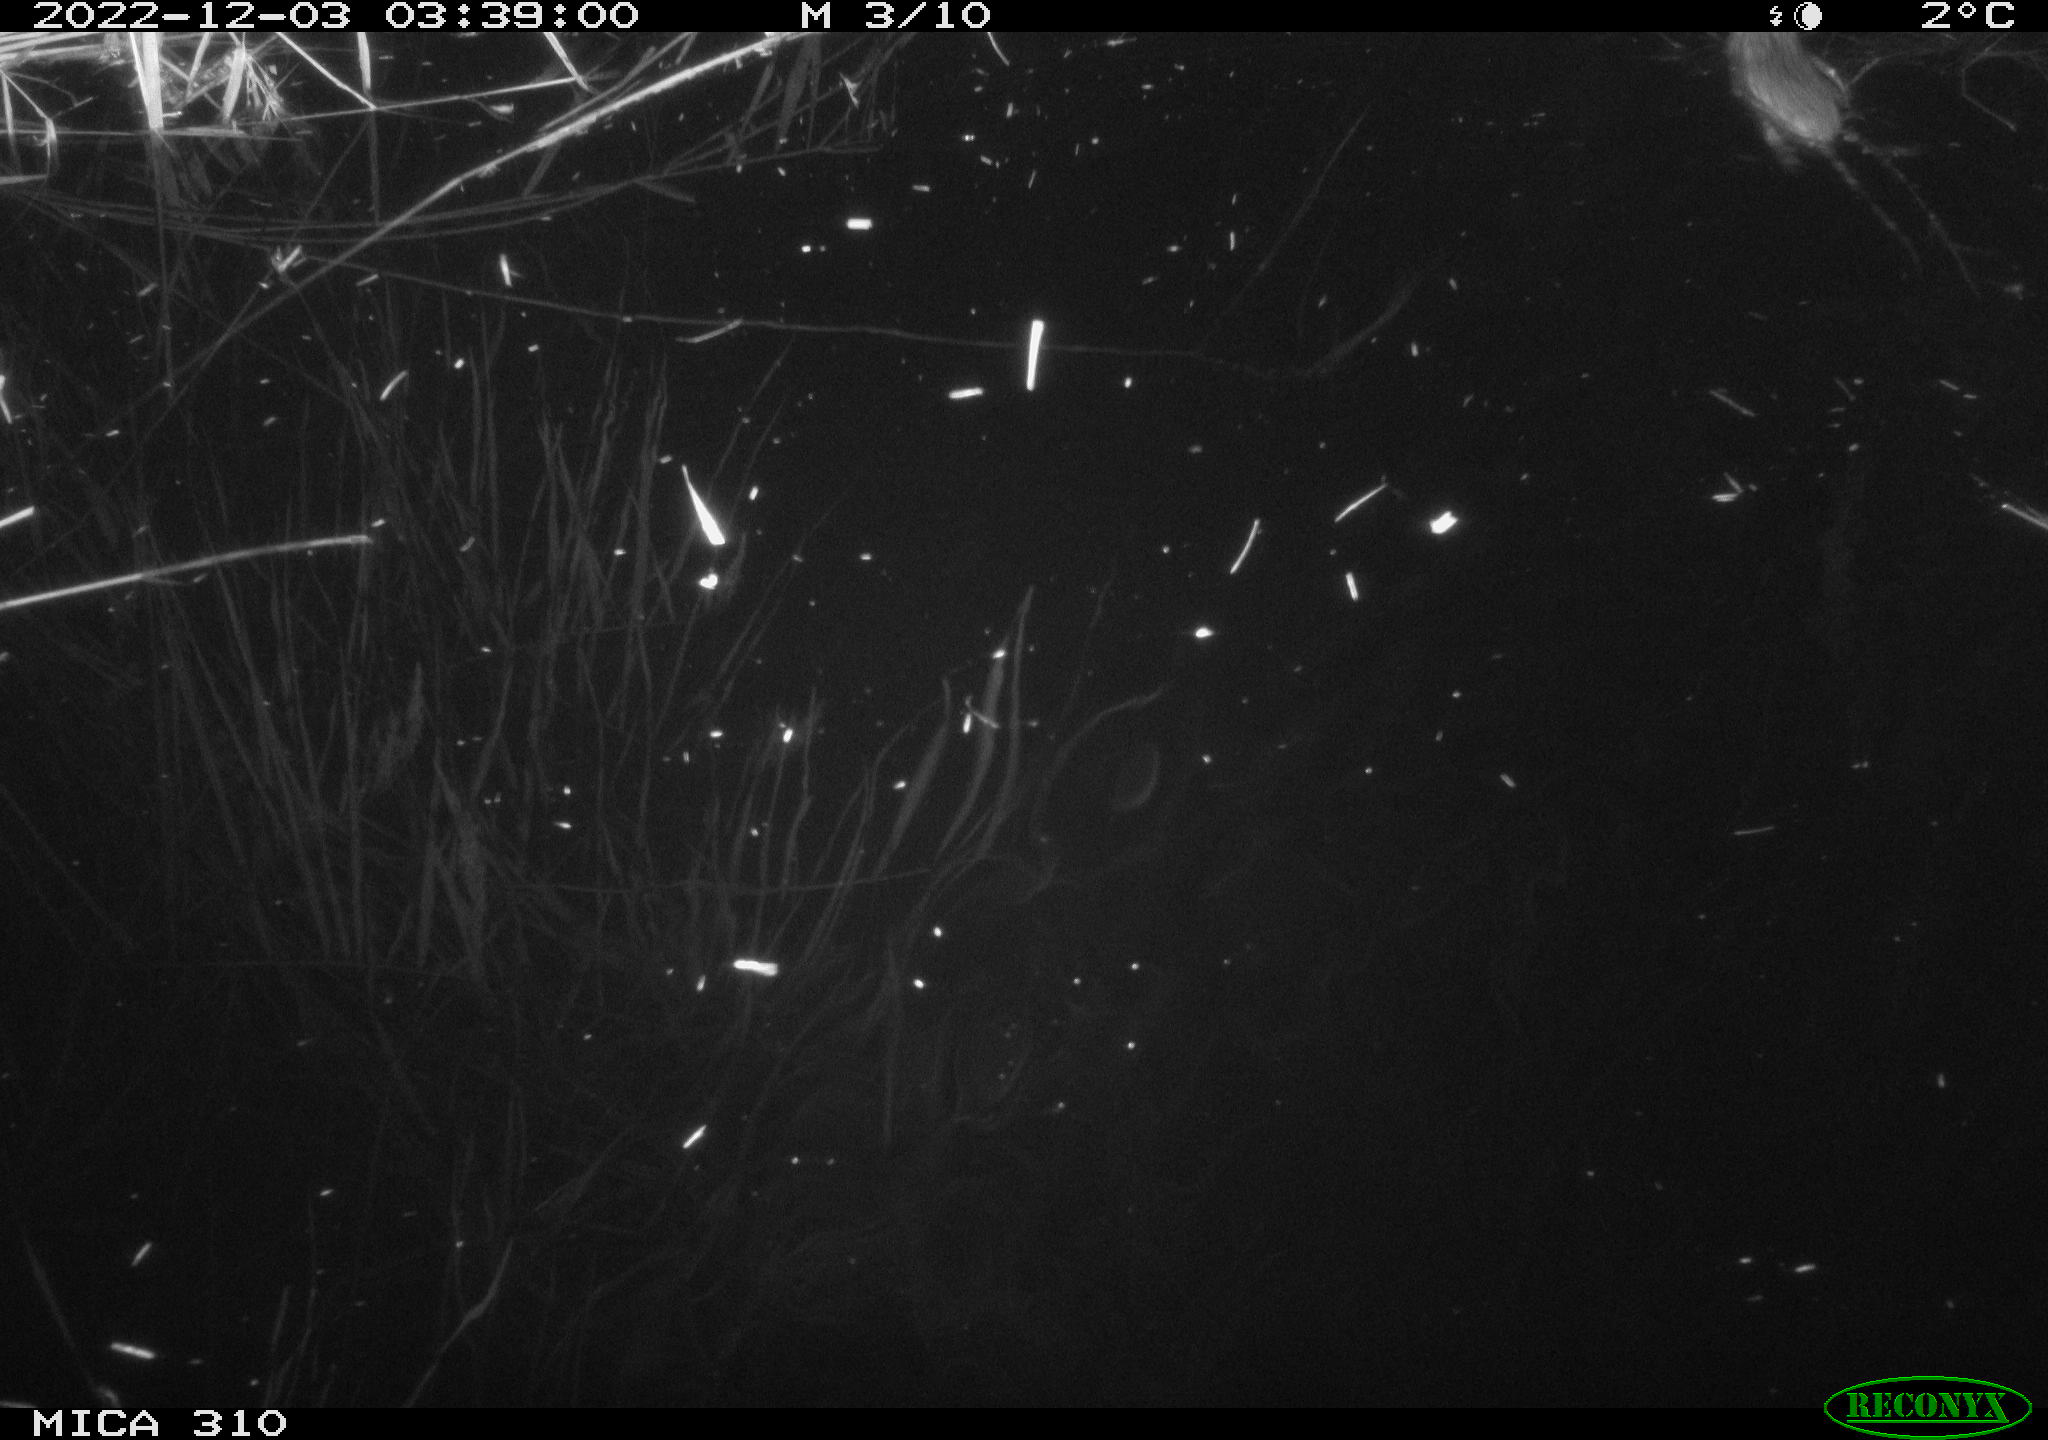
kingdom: Animalia
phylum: Chordata
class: Mammalia
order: Rodentia
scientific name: Rodentia
